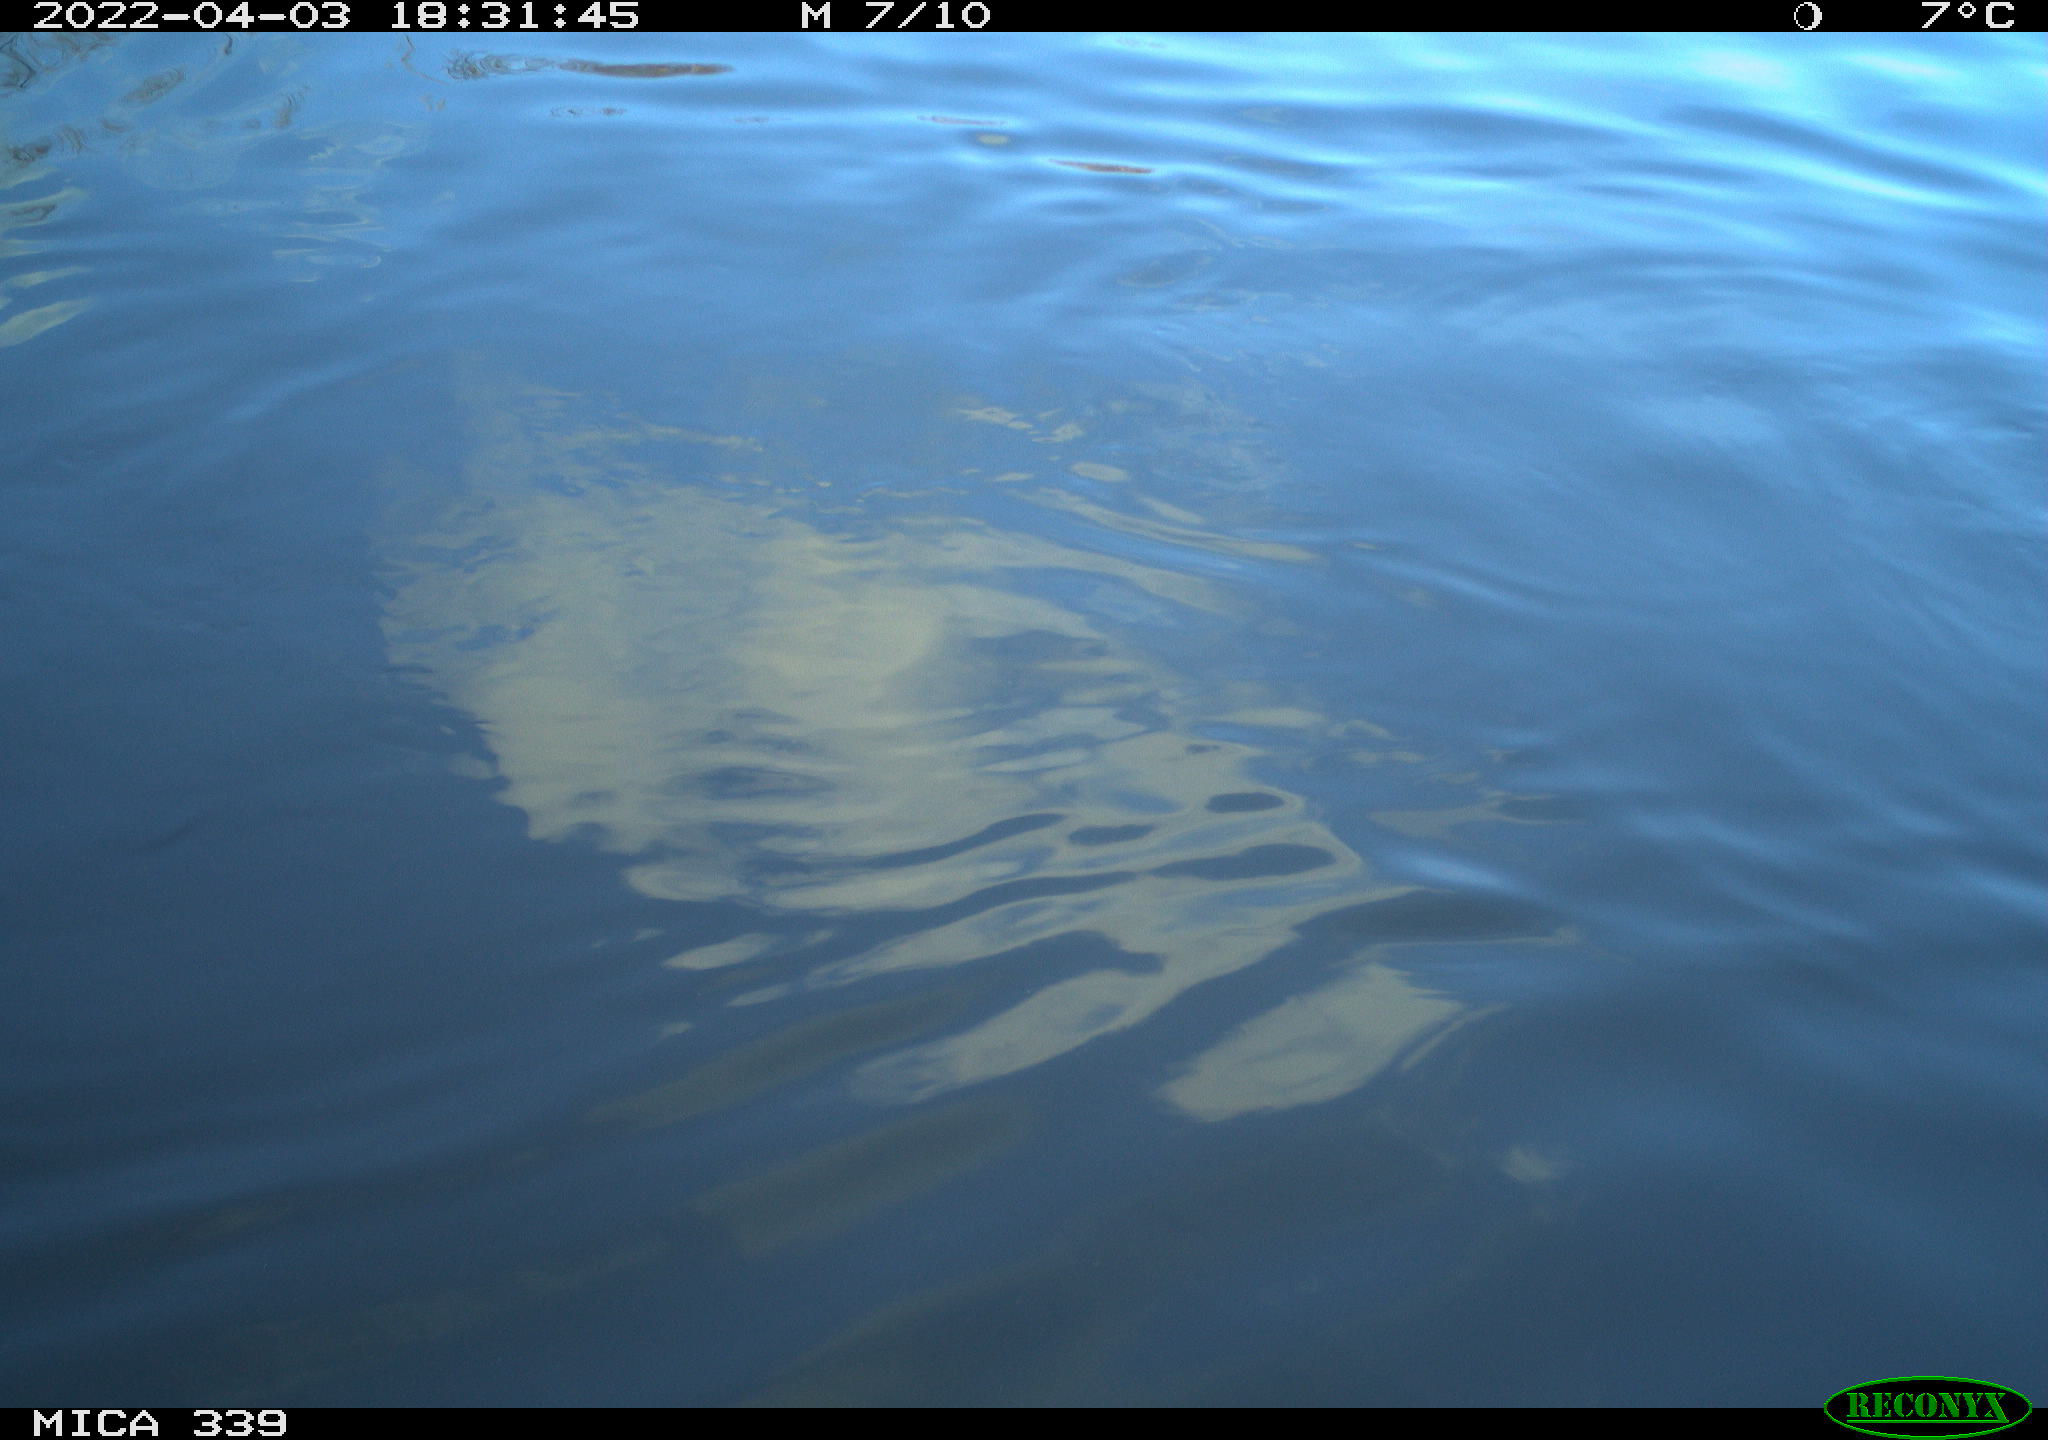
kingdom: Animalia
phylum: Chordata
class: Aves
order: Anseriformes
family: Anatidae
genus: Anas
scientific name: Anas platyrhynchos
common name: Mallard
